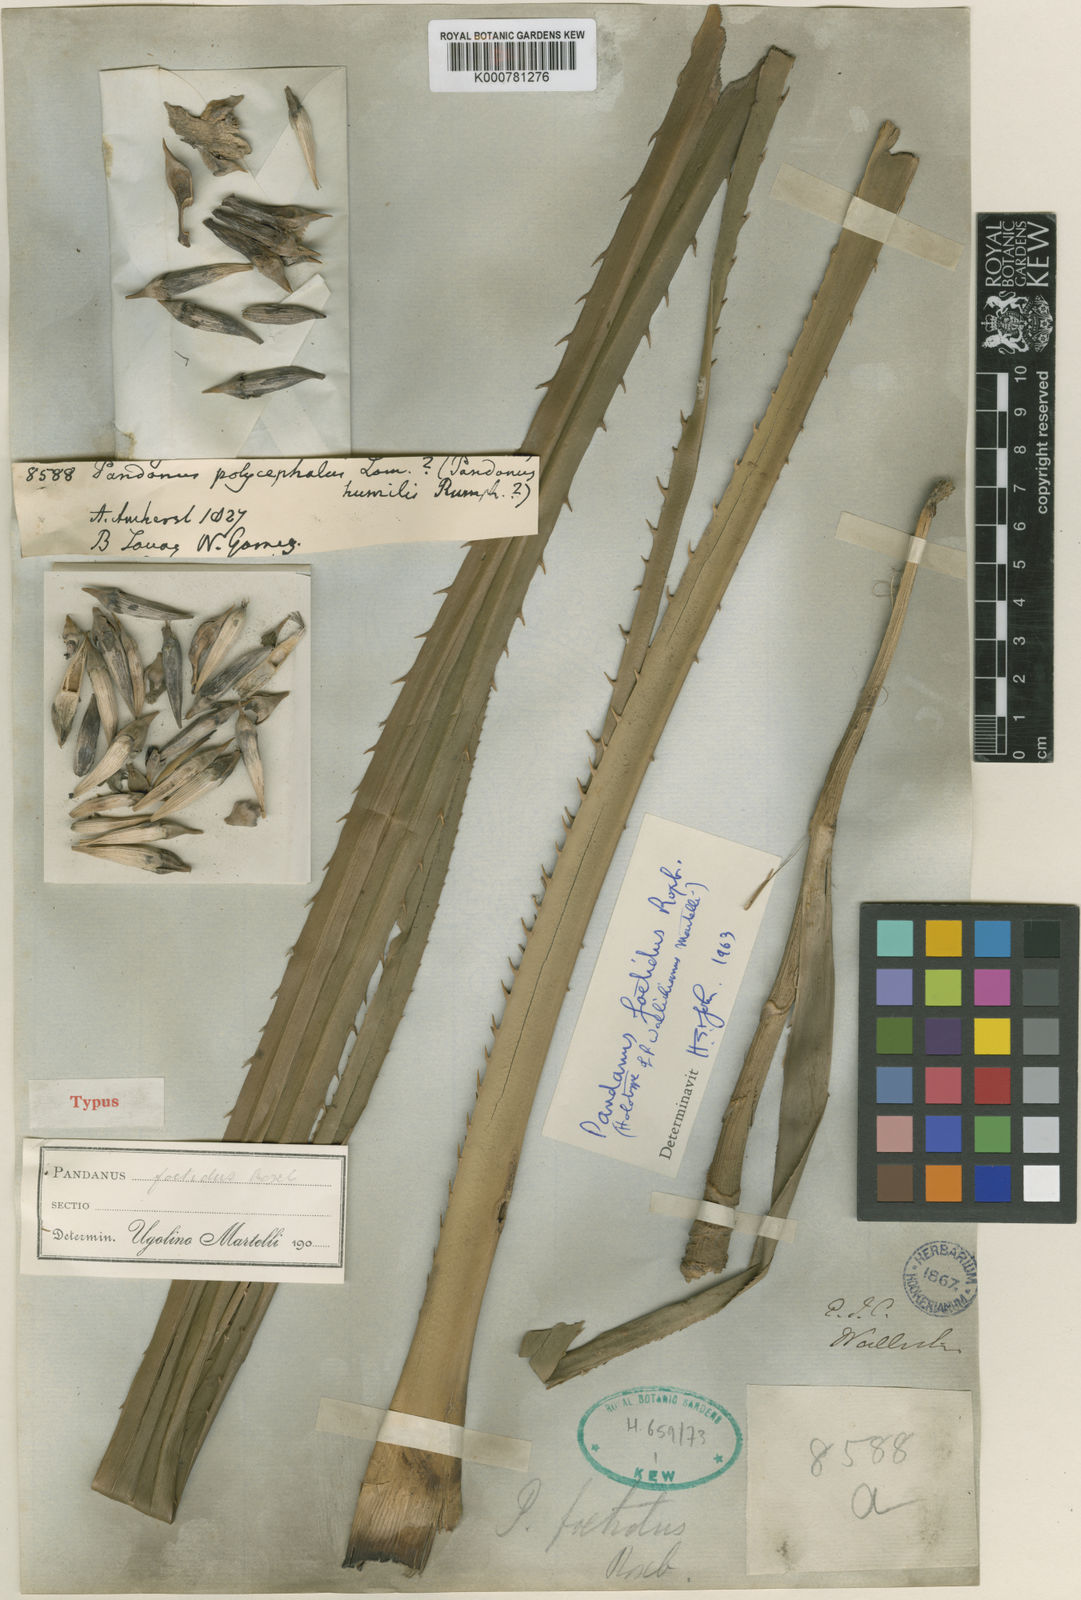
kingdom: Plantae
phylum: Tracheophyta
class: Liliopsida
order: Pandanales
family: Pandanaceae
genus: Benstonea
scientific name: Benstonea foetida
